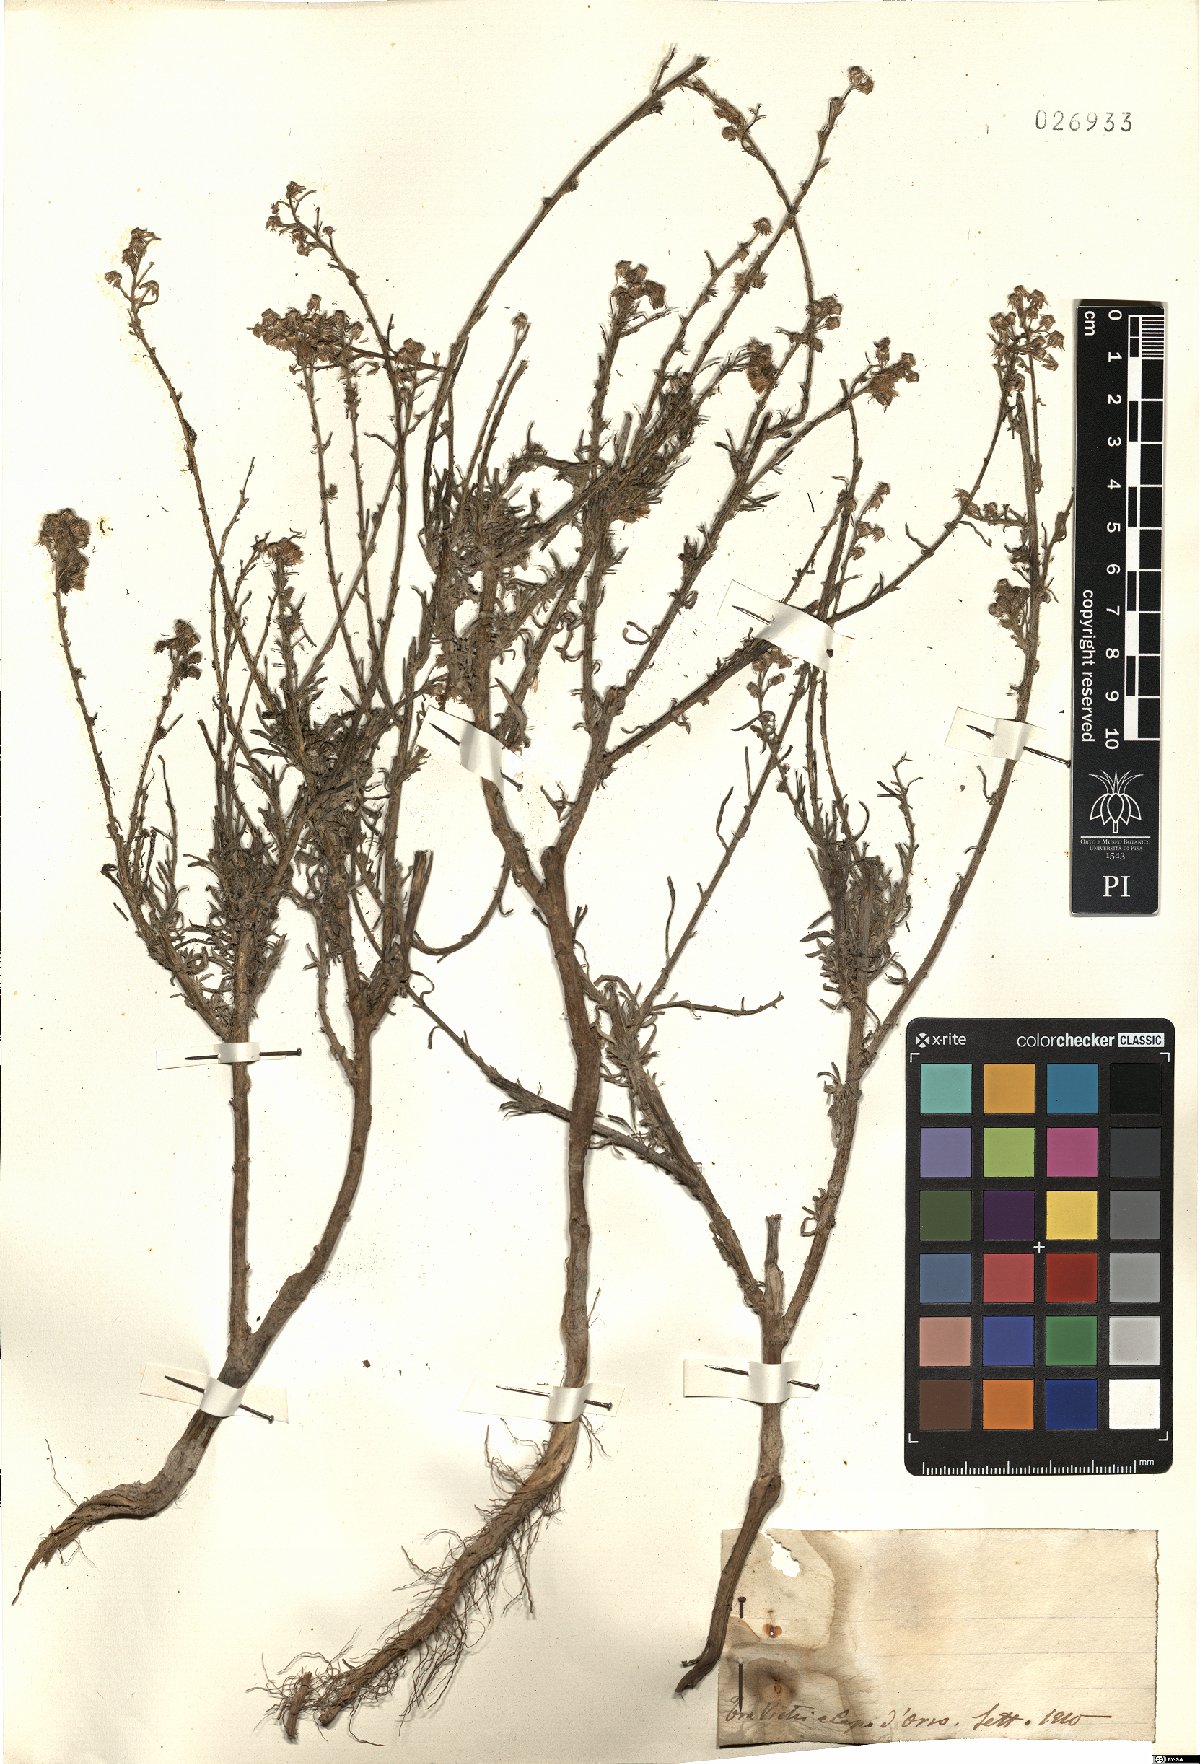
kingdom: Plantae
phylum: Tracheophyta
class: Magnoliopsida
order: Asterales
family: Asteraceae
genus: Erigeron
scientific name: Erigeron
